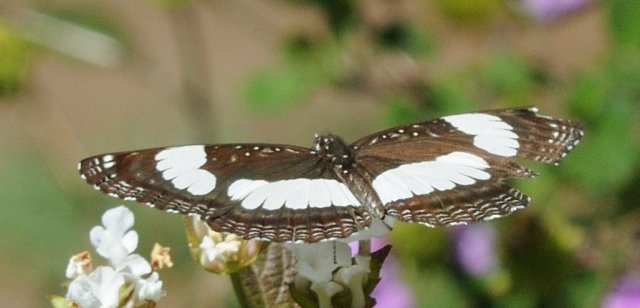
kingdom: Animalia
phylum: Arthropoda
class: Insecta
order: Lepidoptera
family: Nymphalidae
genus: Neptis
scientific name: Neptis serena
